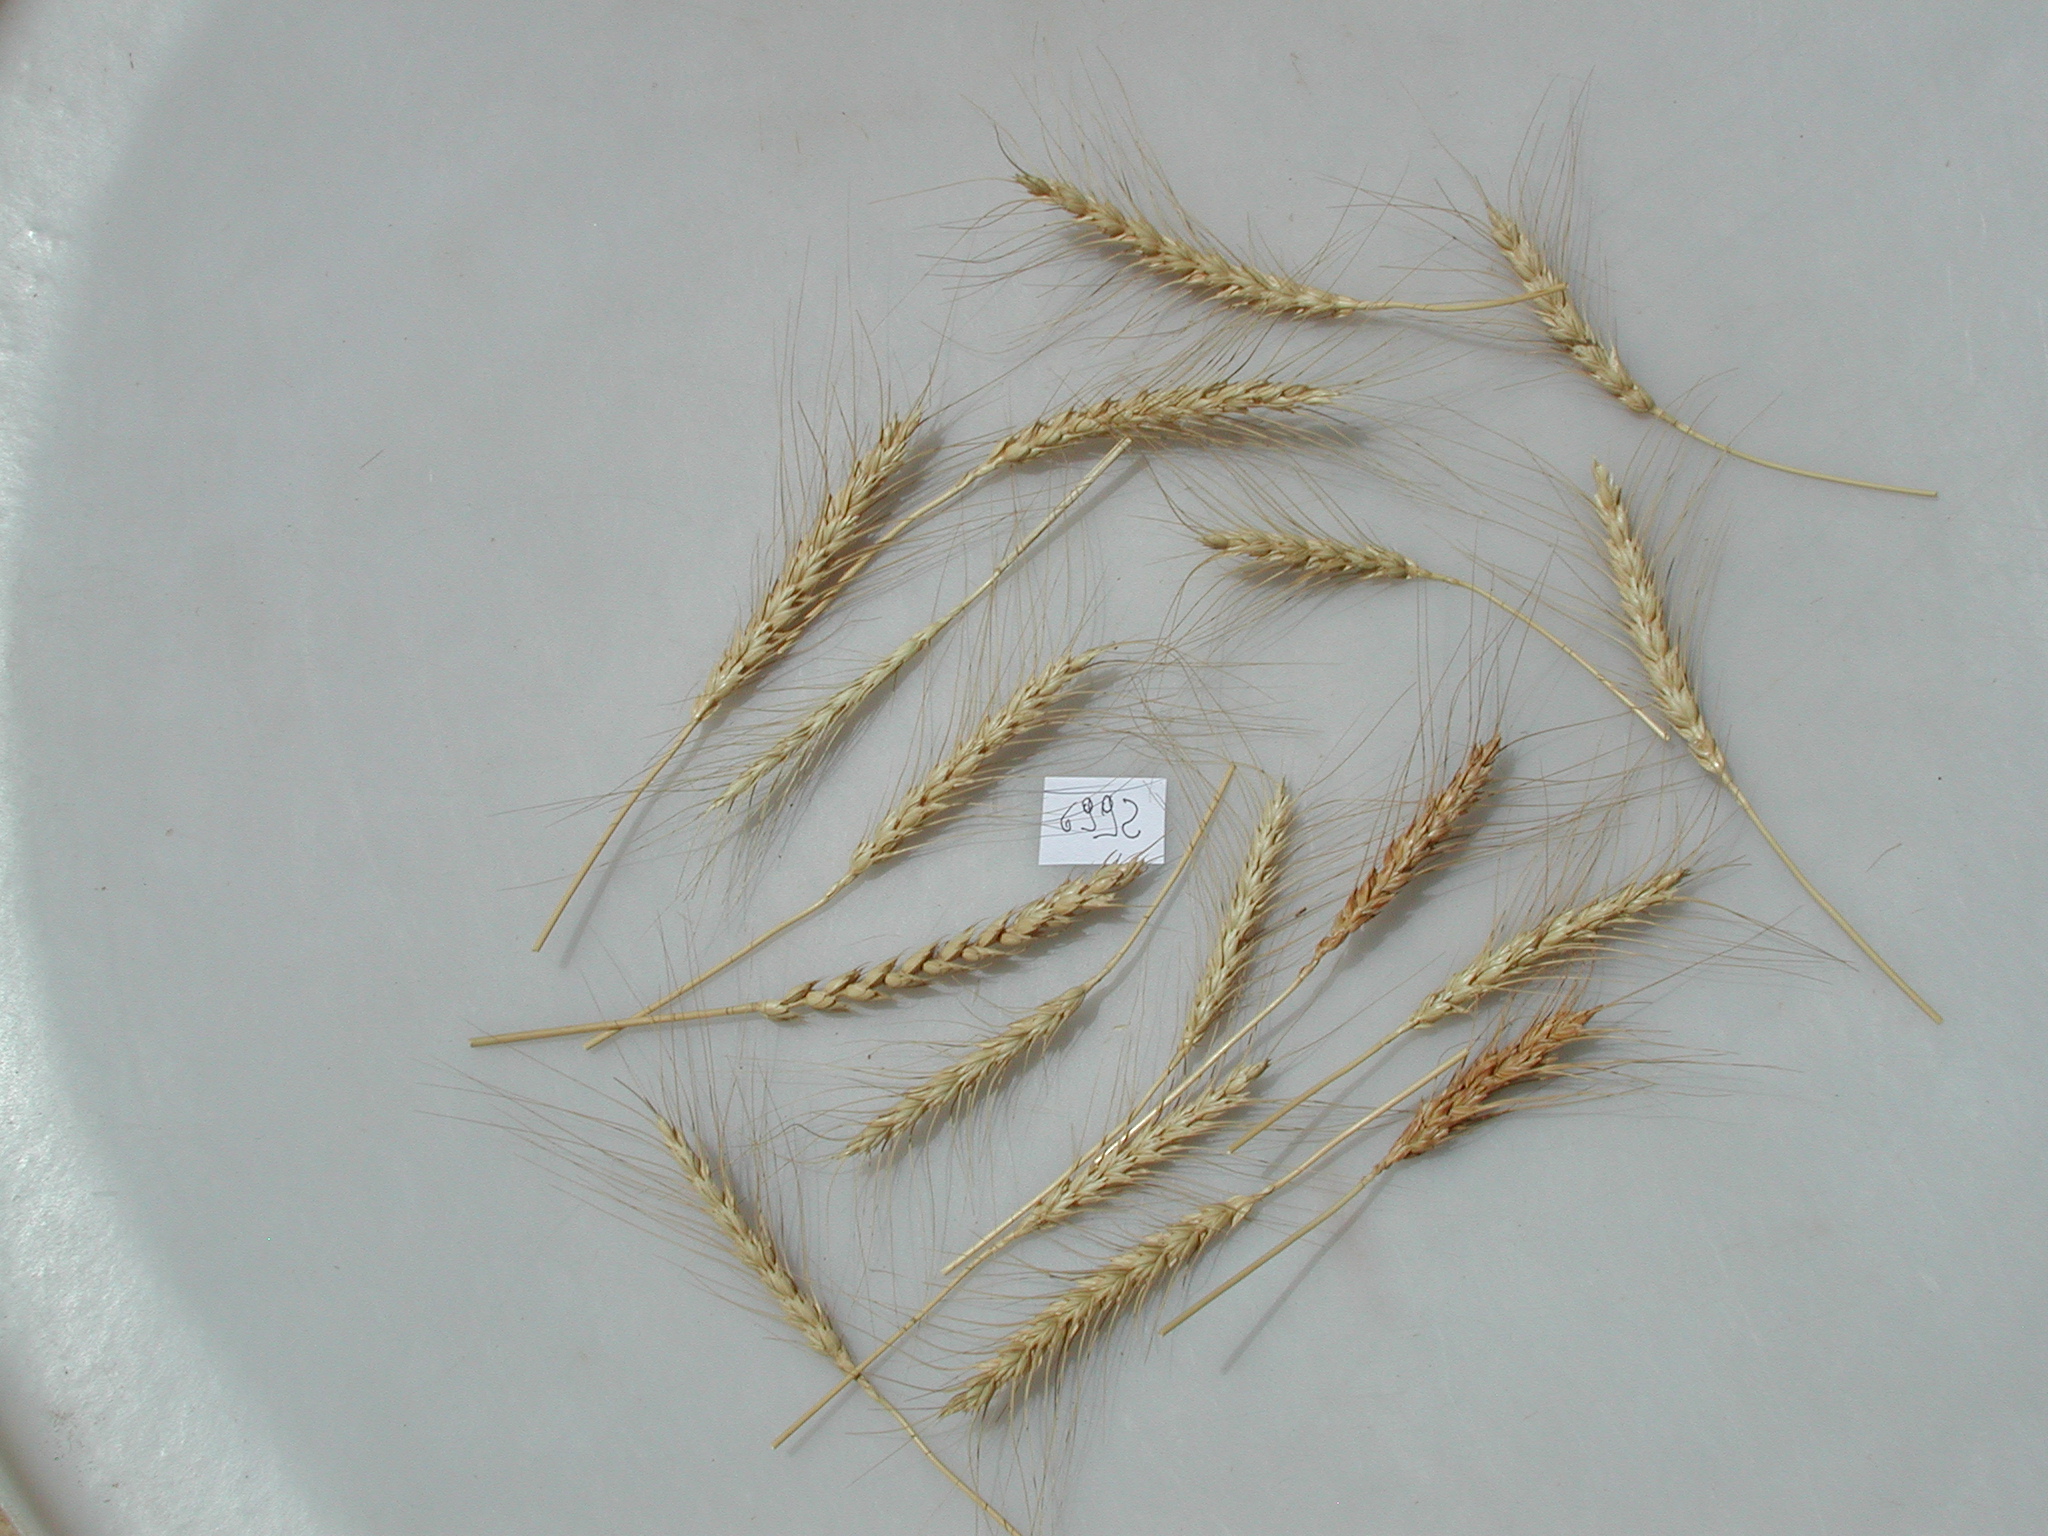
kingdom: Plantae
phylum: Tracheophyta
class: Liliopsida
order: Poales
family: Poaceae
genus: Triticum
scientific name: Triticum aestivum
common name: Wheat
